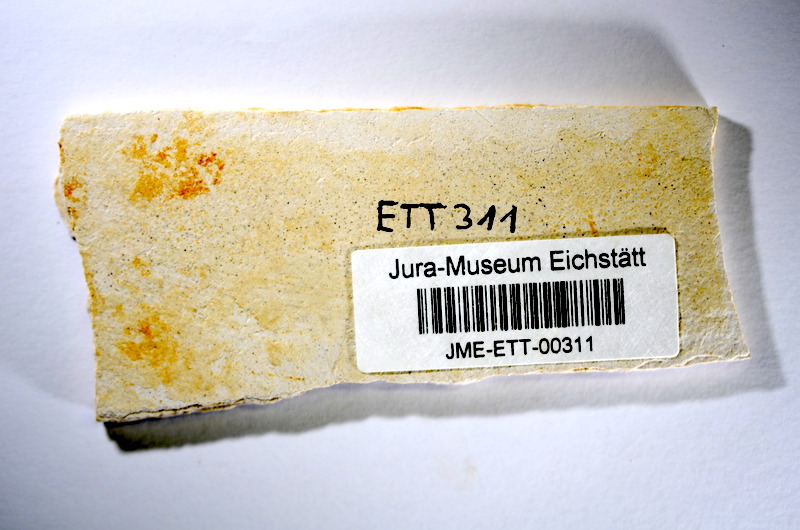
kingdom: Animalia
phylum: Chordata
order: Salmoniformes
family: Orthogonikleithridae
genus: Orthogonikleithrus
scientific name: Orthogonikleithrus hoelli
